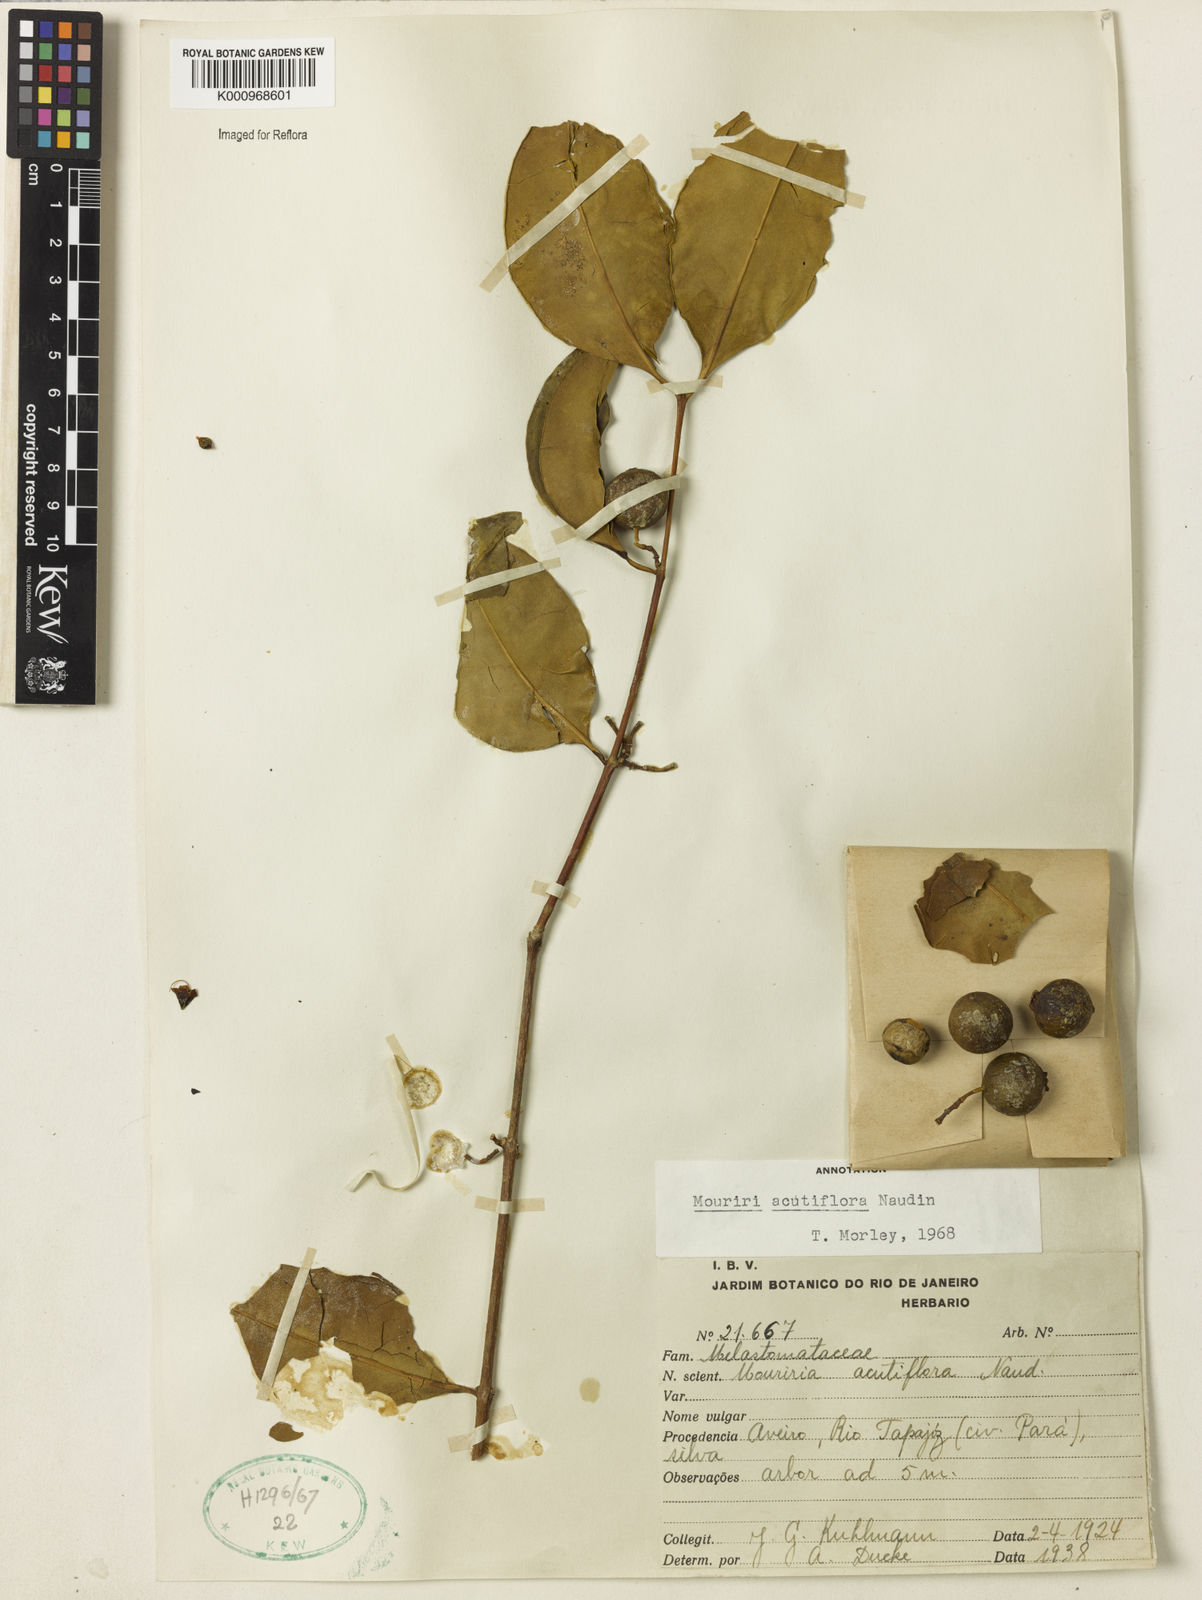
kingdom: Plantae
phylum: Tracheophyta
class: Magnoliopsida
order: Myrtales
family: Melastomataceae
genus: Mouriri
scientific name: Mouriri acutiflora
